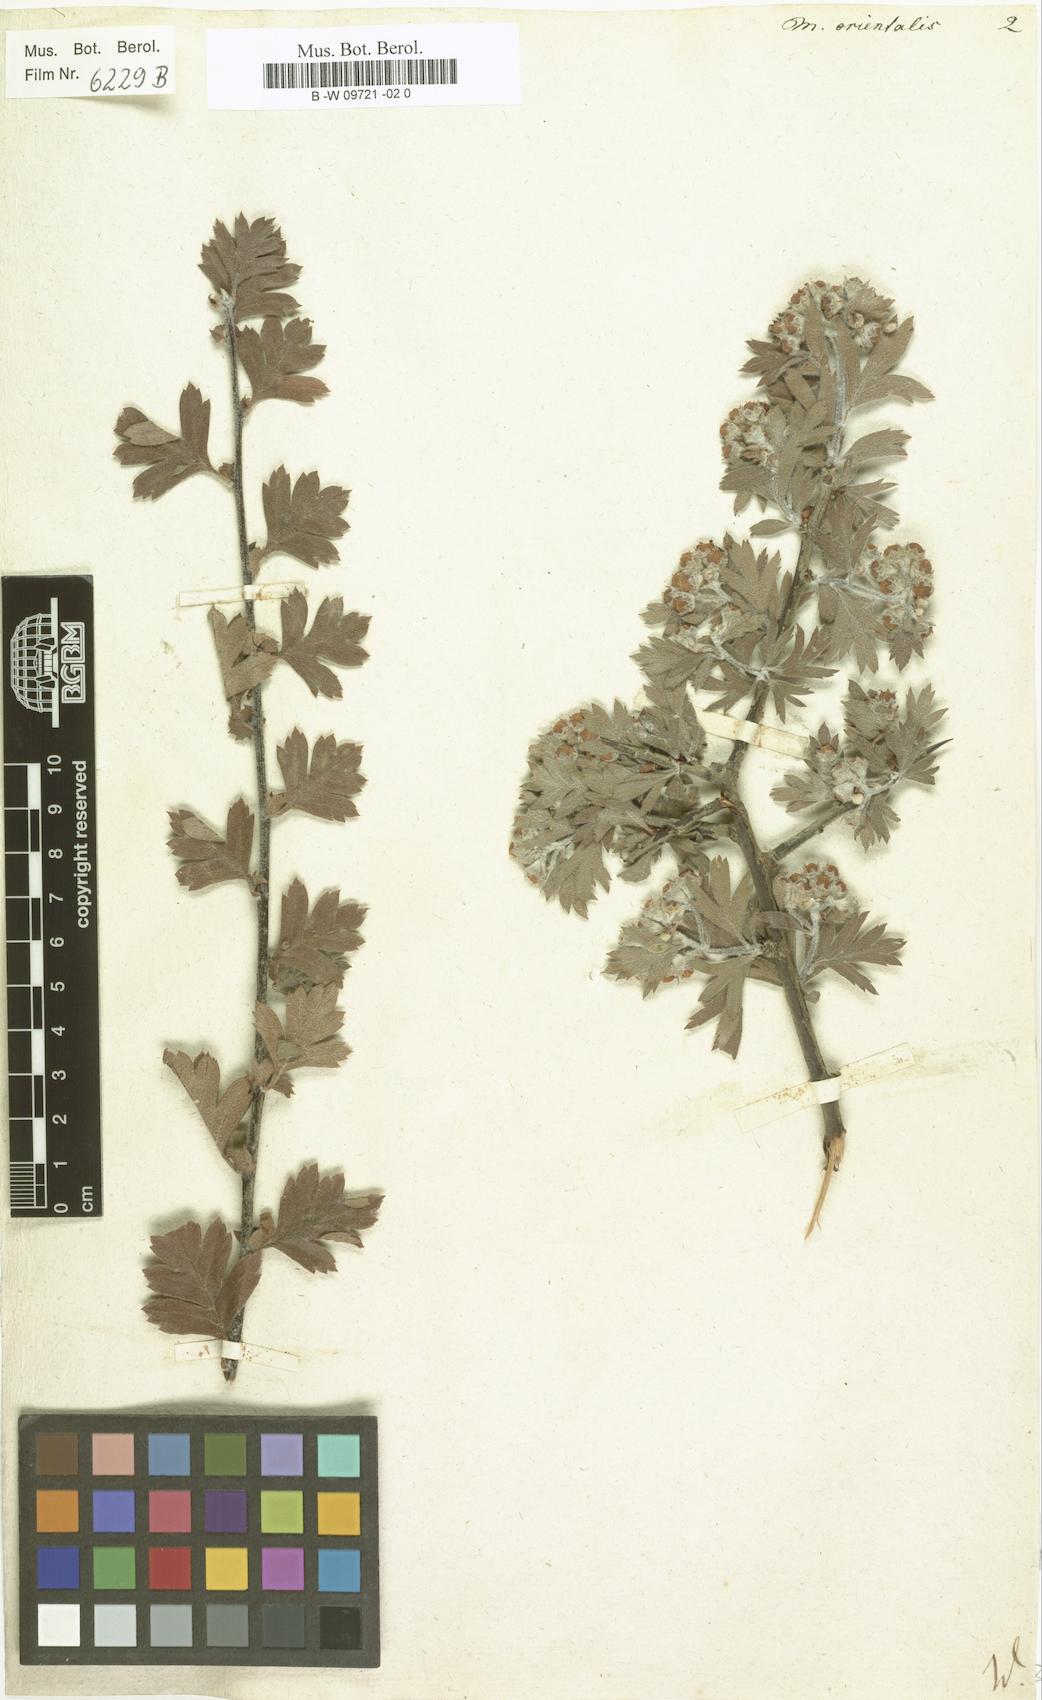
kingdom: Plantae
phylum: Tracheophyta
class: Magnoliopsida
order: Rosales
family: Rosaceae
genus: Cotoneaster
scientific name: Cotoneaster tomentosus
